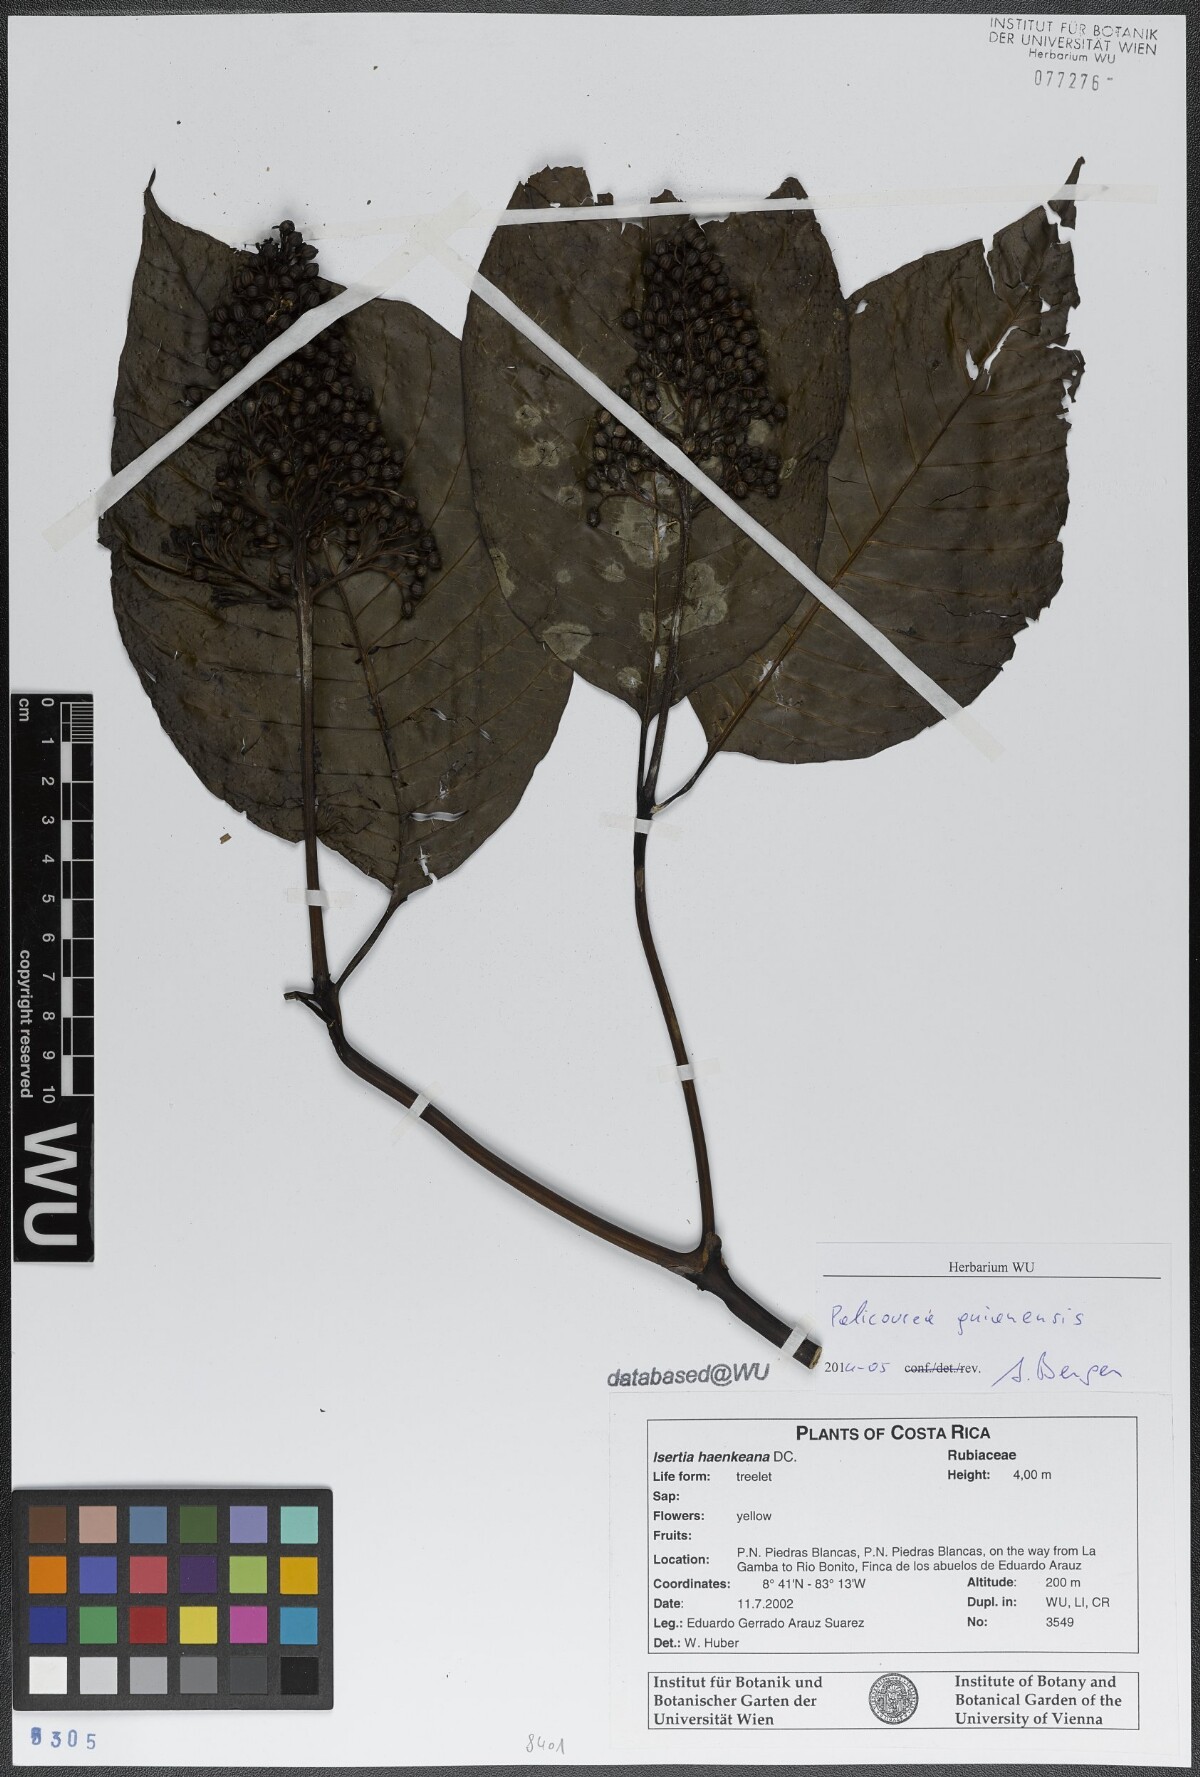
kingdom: Plantae
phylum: Tracheophyta
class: Magnoliopsida
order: Gentianales
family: Rubiaceae
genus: Palicourea
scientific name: Palicourea guianensis
